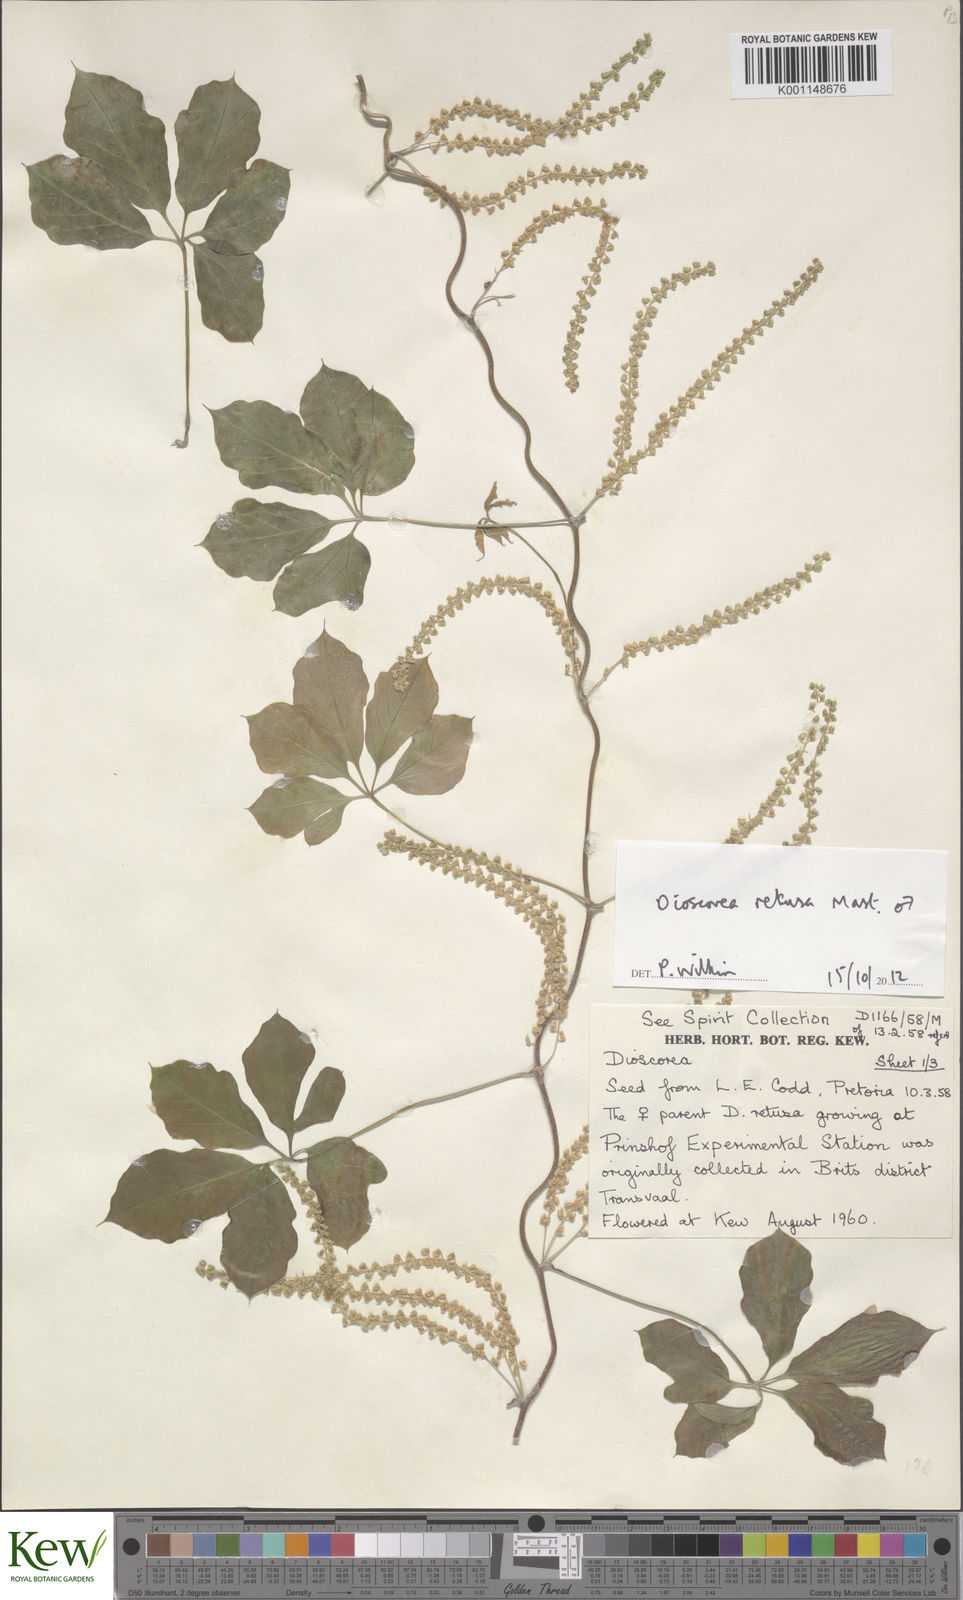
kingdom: Plantae
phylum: Tracheophyta
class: Liliopsida
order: Dioscoreales
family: Dioscoreaceae
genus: Dioscorea
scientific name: Dioscorea retusa
